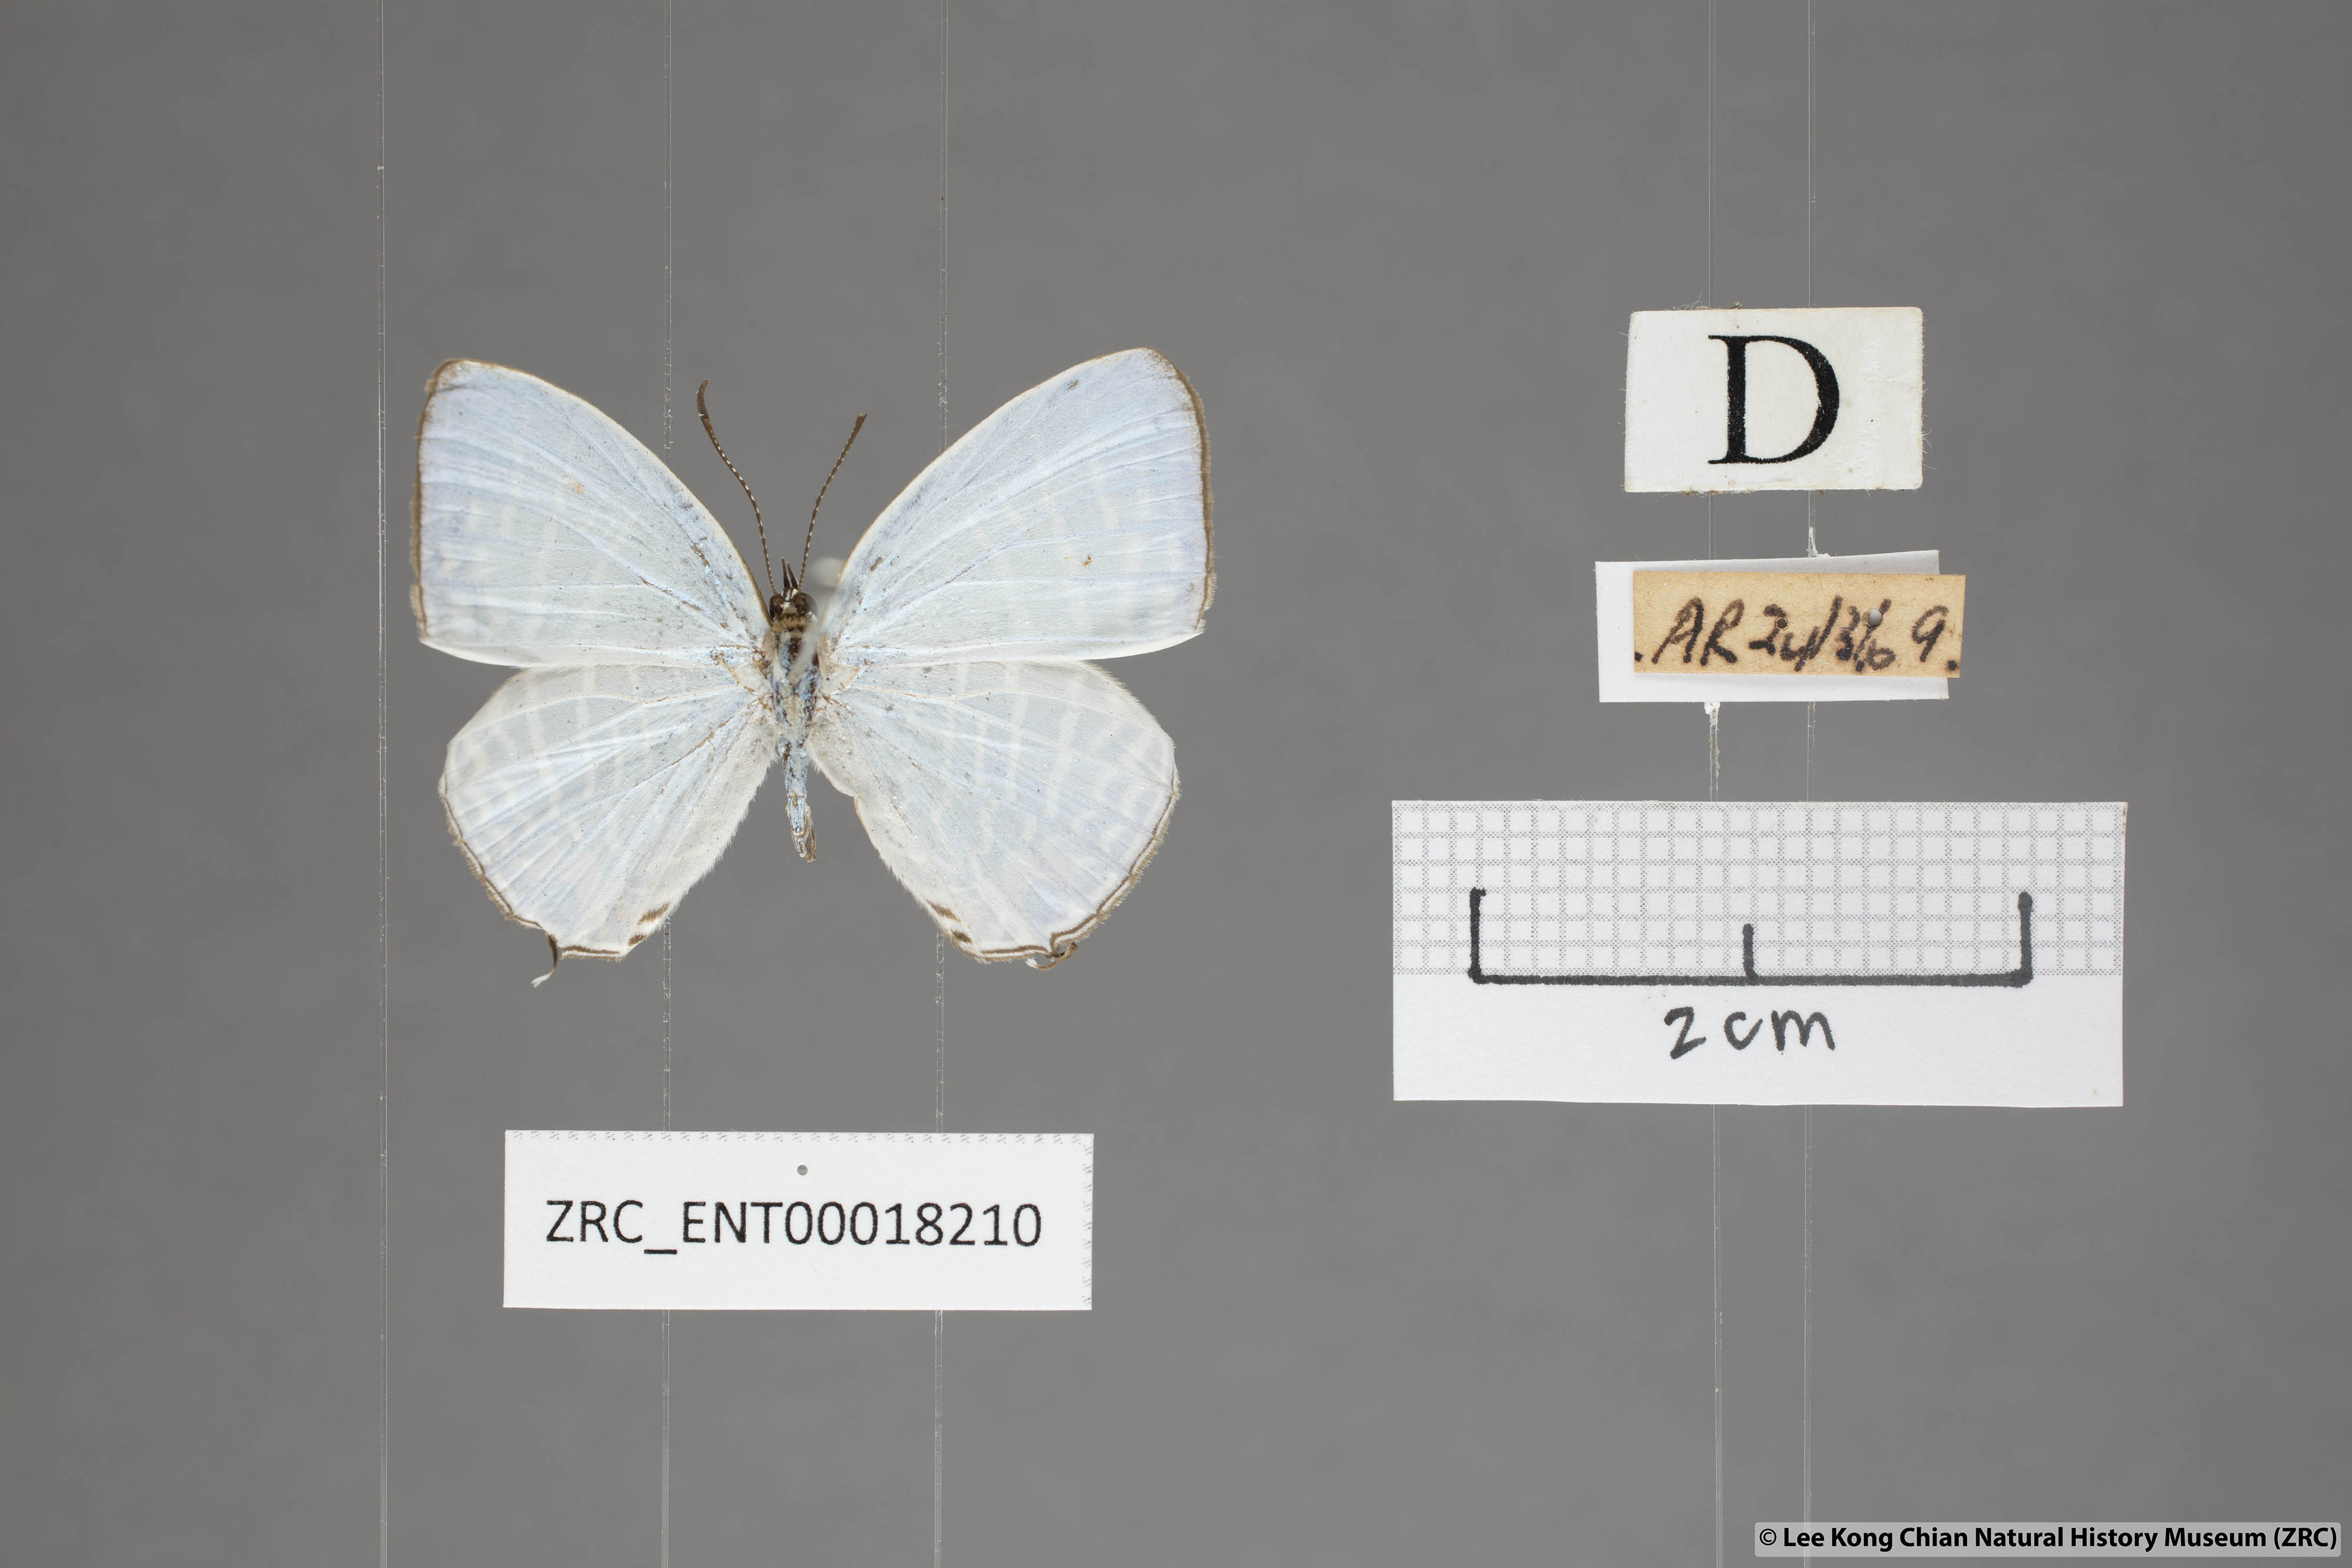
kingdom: Animalia
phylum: Arthropoda
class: Insecta
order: Lepidoptera
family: Lycaenidae
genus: Jamides
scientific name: Jamides zebra
